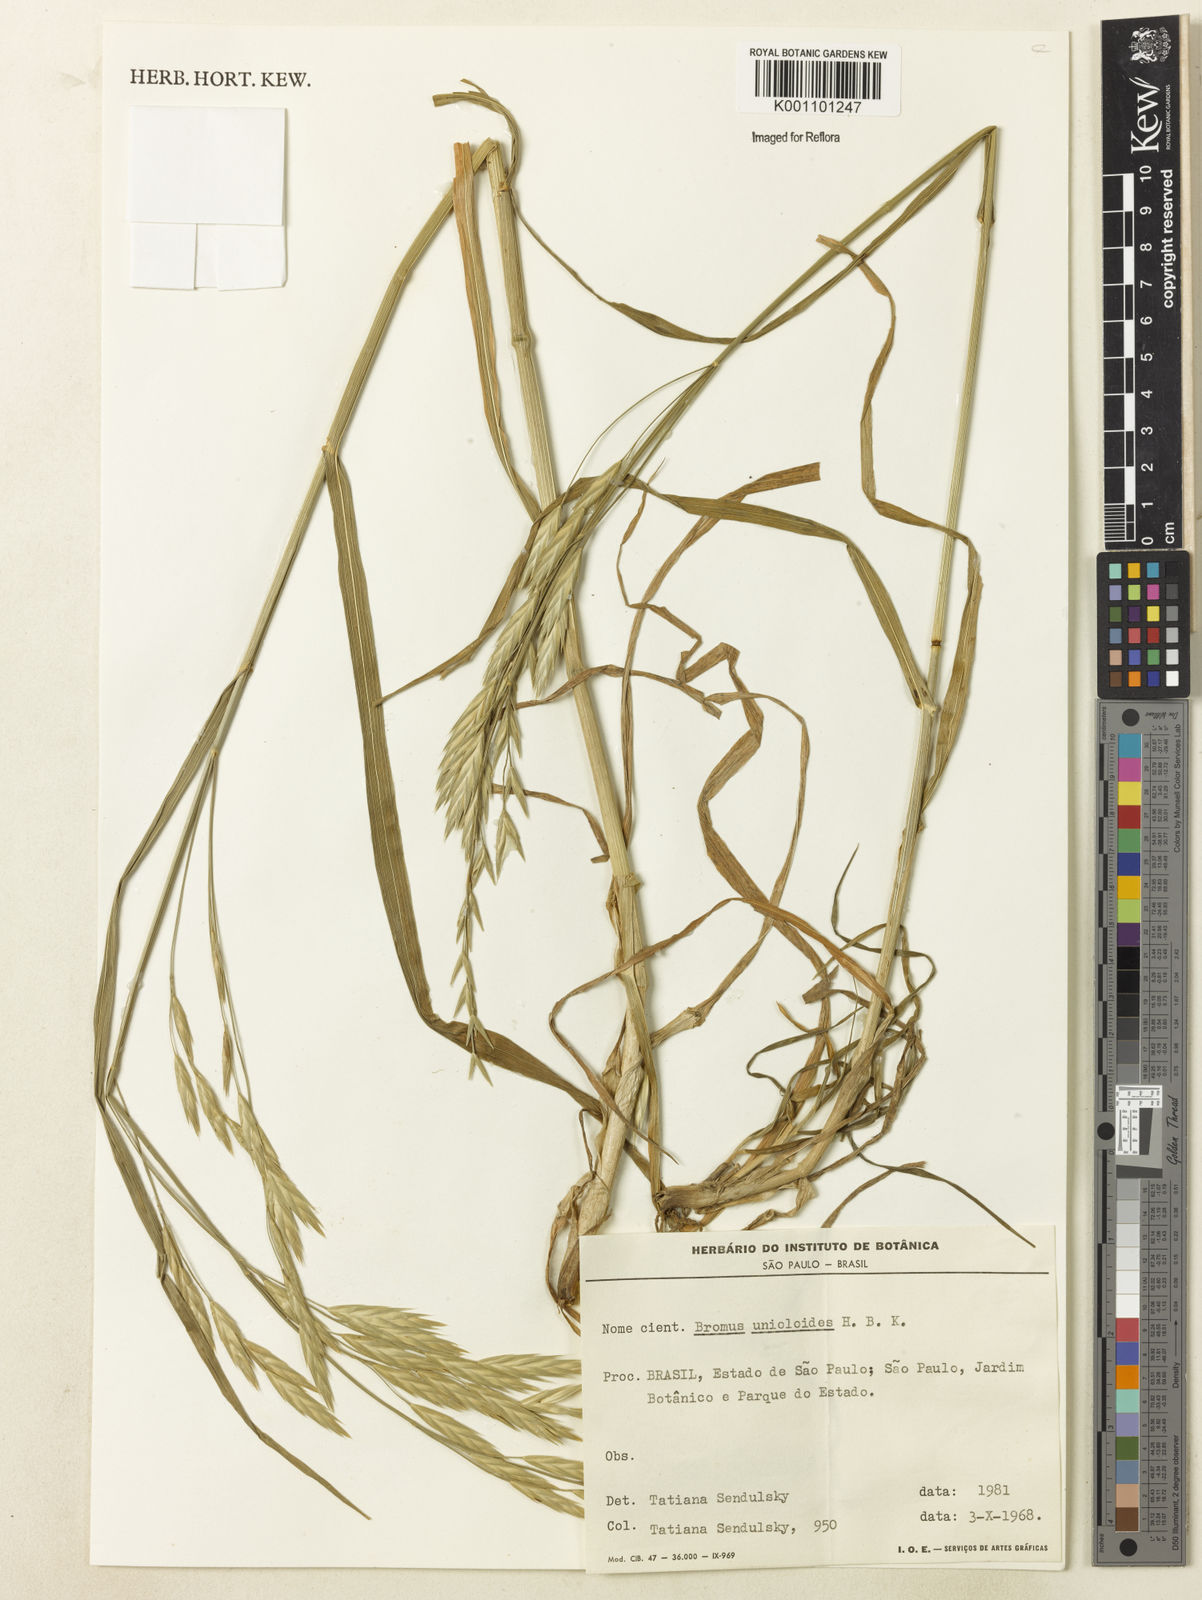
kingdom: Plantae
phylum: Tracheophyta
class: Liliopsida
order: Poales
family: Poaceae
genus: Bromus
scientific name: Bromus catharticus
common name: Rescuegrass
